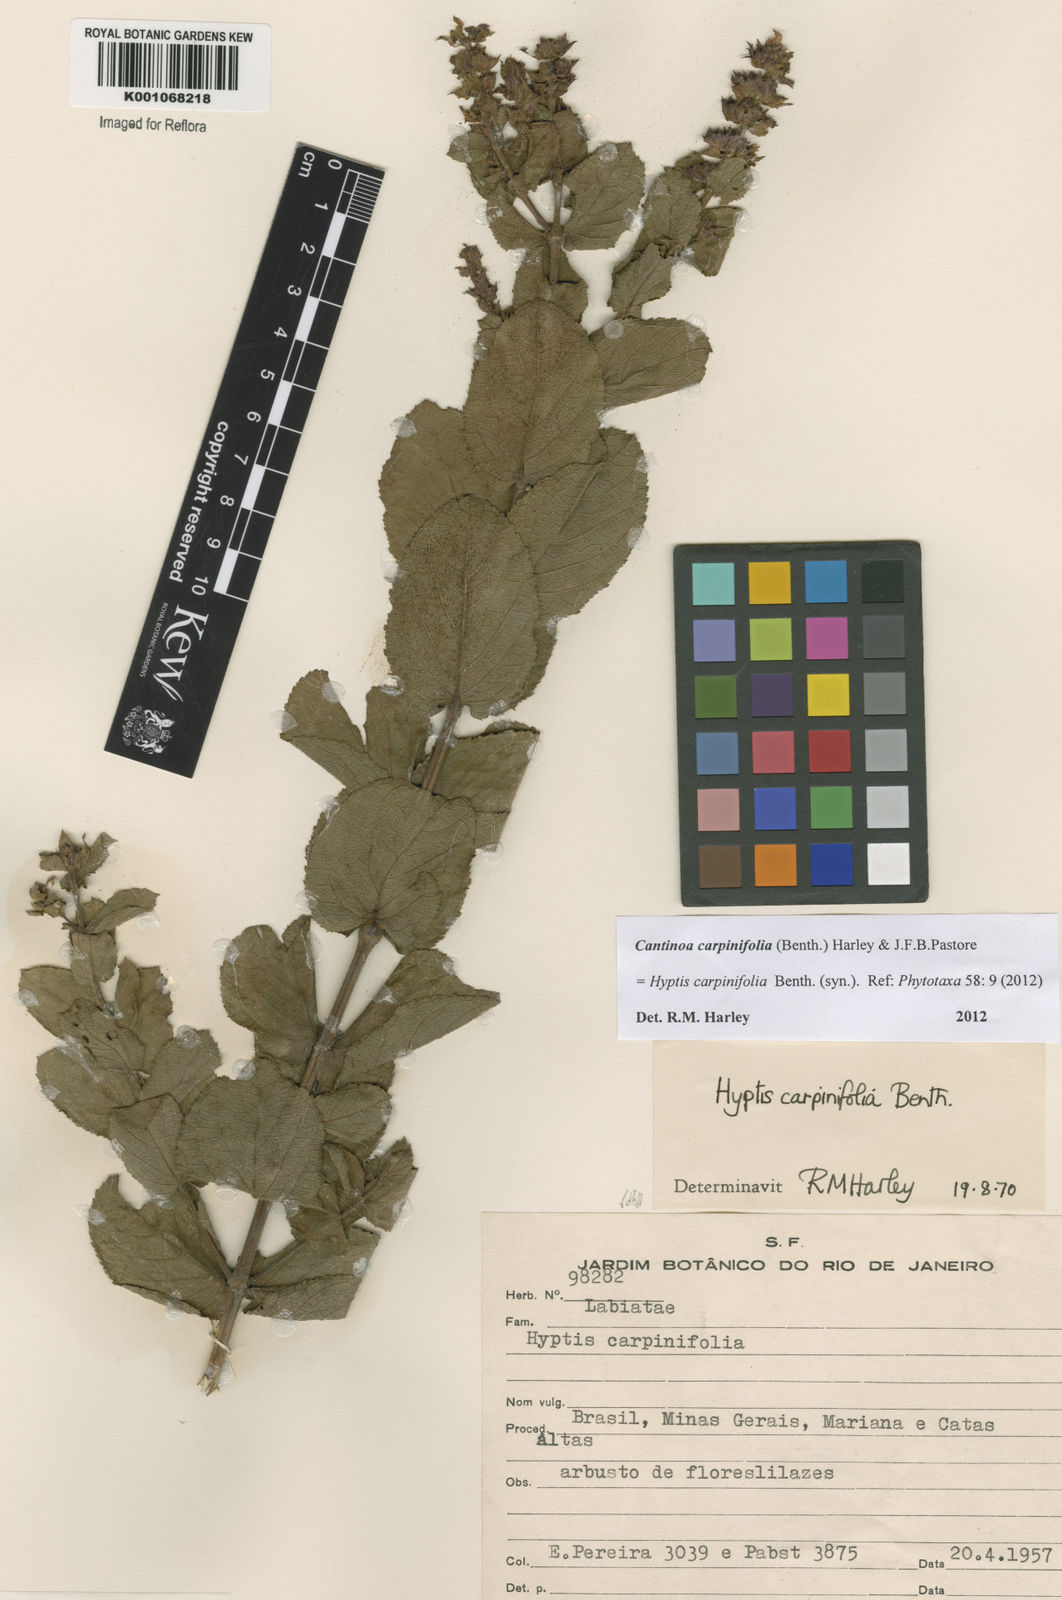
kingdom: Plantae
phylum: Tracheophyta
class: Magnoliopsida
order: Lamiales
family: Lamiaceae
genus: Cantinoa
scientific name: Cantinoa carpinifolia
